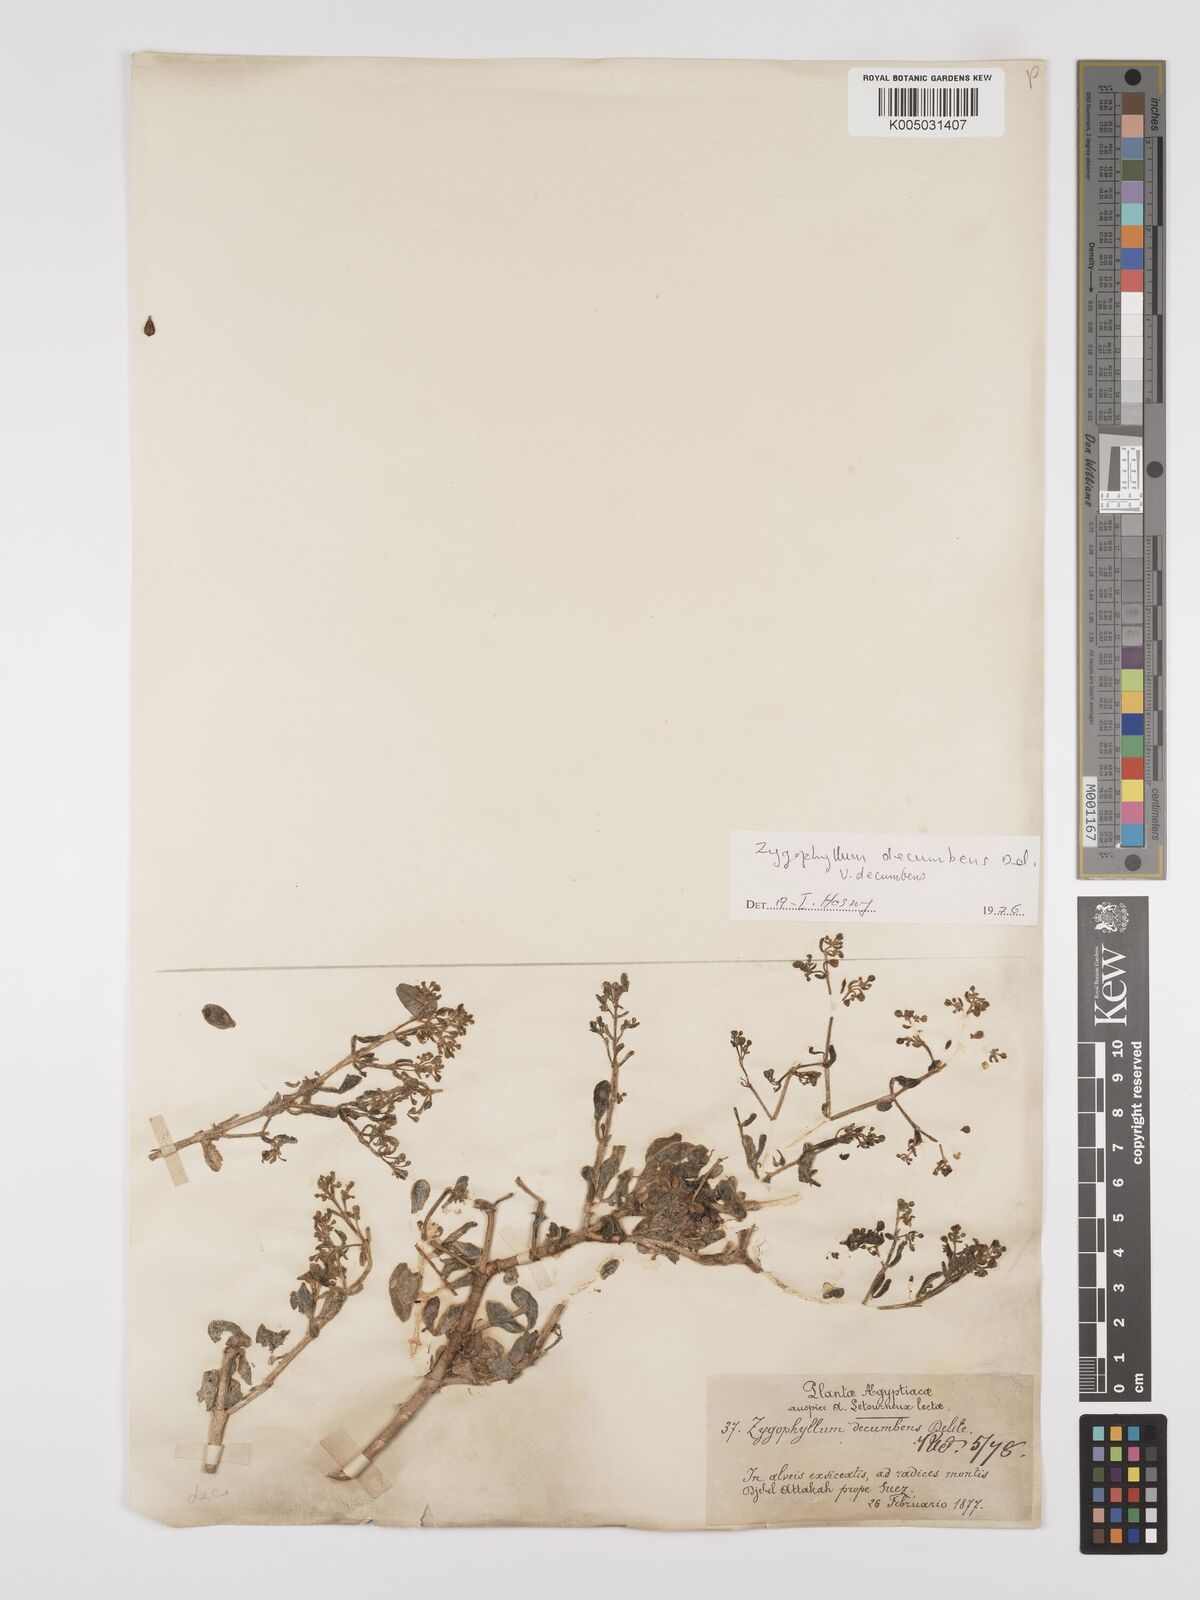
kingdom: Plantae
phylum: Tracheophyta
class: Magnoliopsida
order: Zygophyllales
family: Zygophyllaceae
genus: Tetraena
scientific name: Tetraena decumbens
